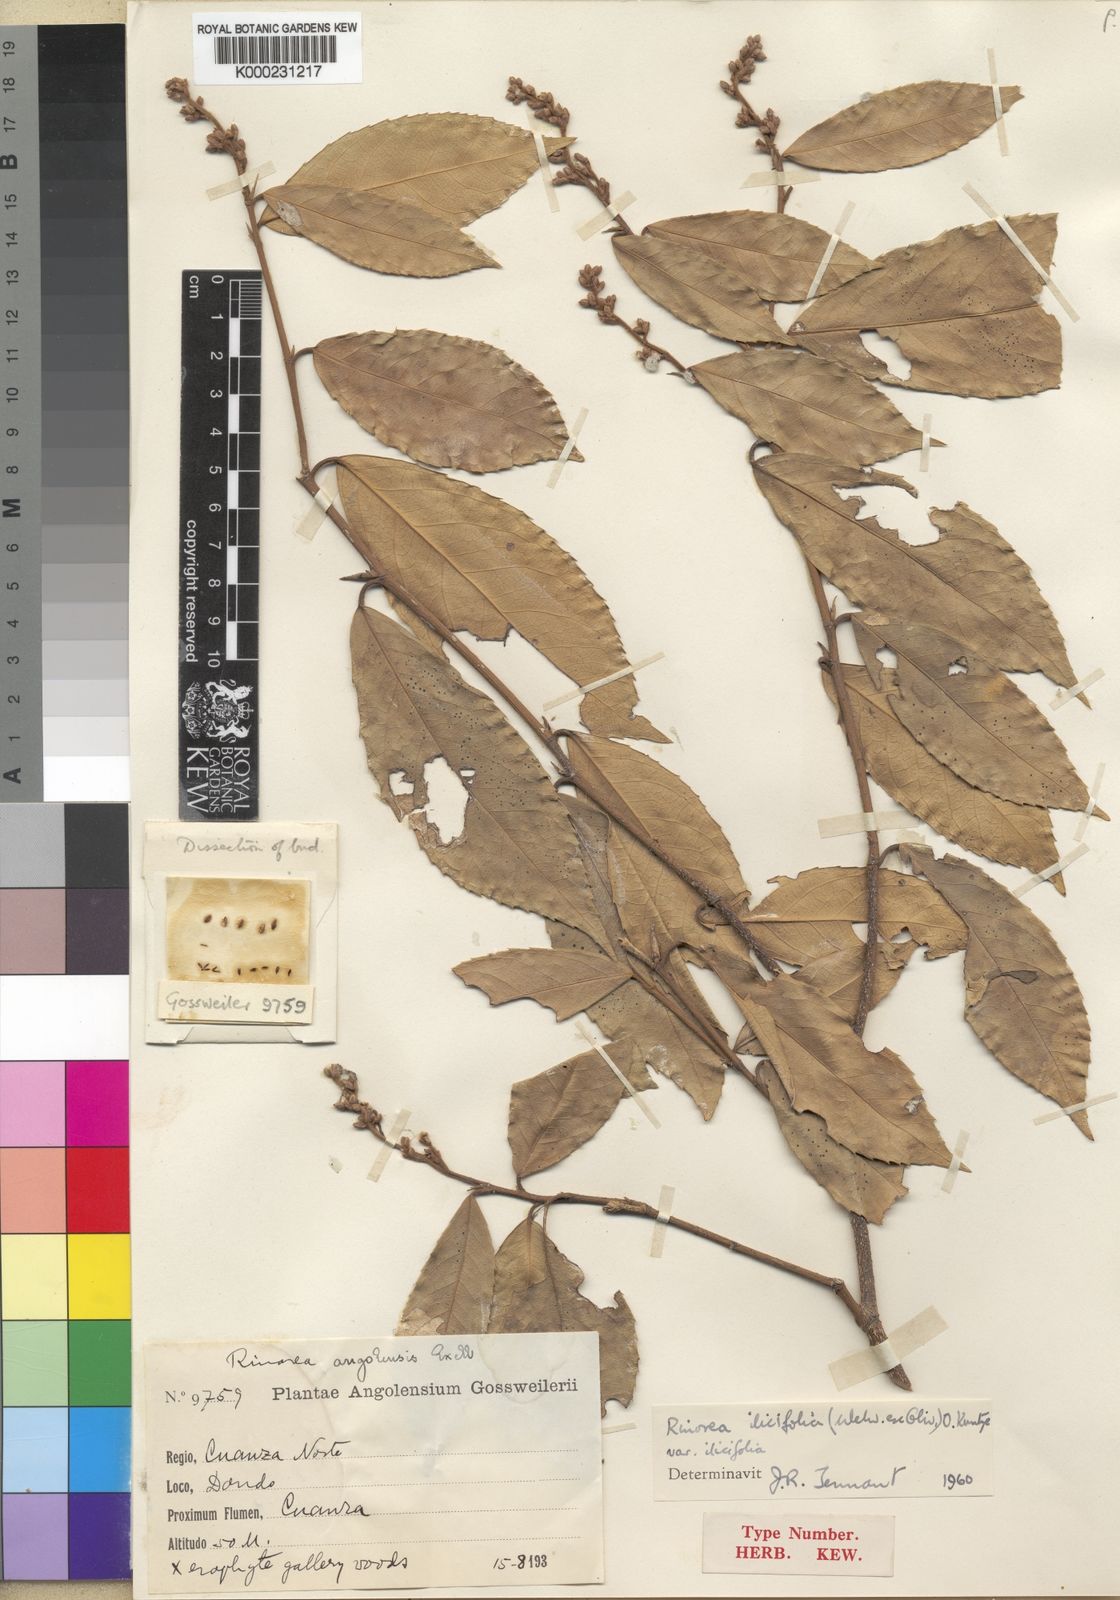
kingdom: Plantae
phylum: Tracheophyta
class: Magnoliopsida
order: Malpighiales
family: Violaceae
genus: Rinorea
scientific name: Rinorea ilicifolia
